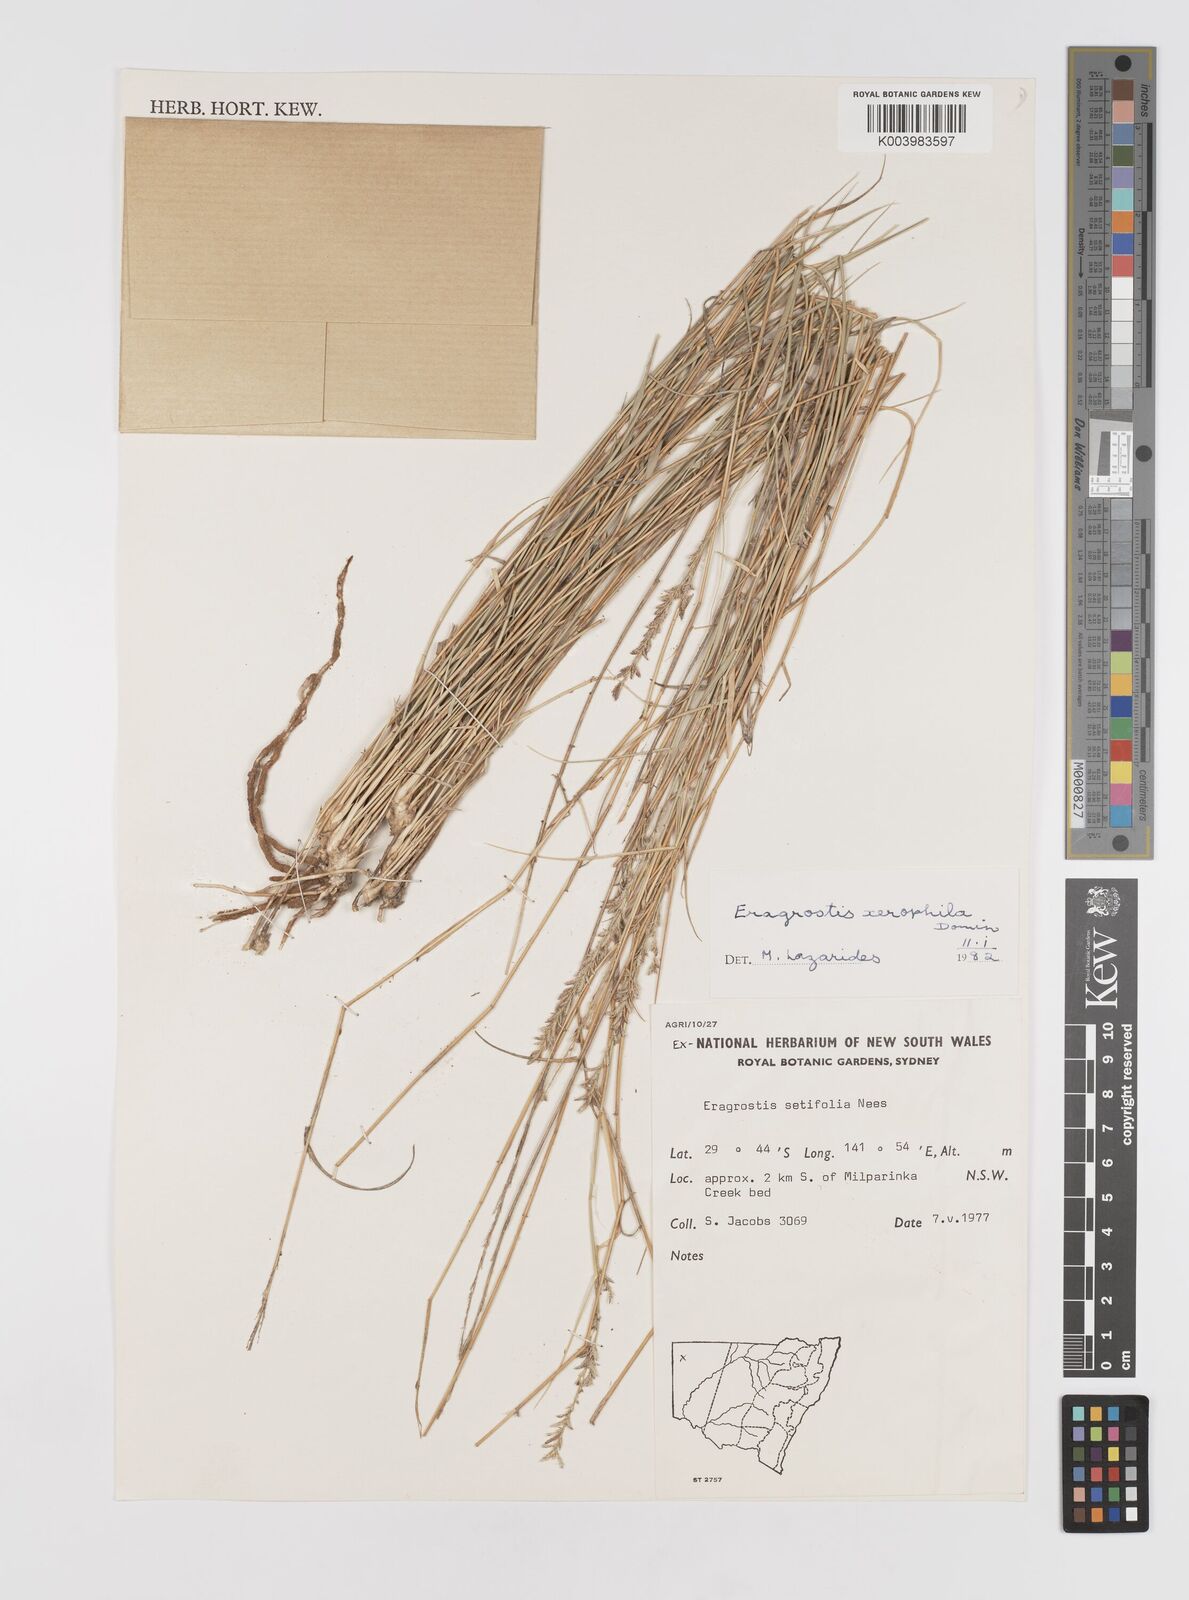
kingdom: Plantae
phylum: Tracheophyta
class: Liliopsida
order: Poales
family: Poaceae
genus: Eragrostis
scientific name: Eragrostis xerophila
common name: Wire wandarrie grass
